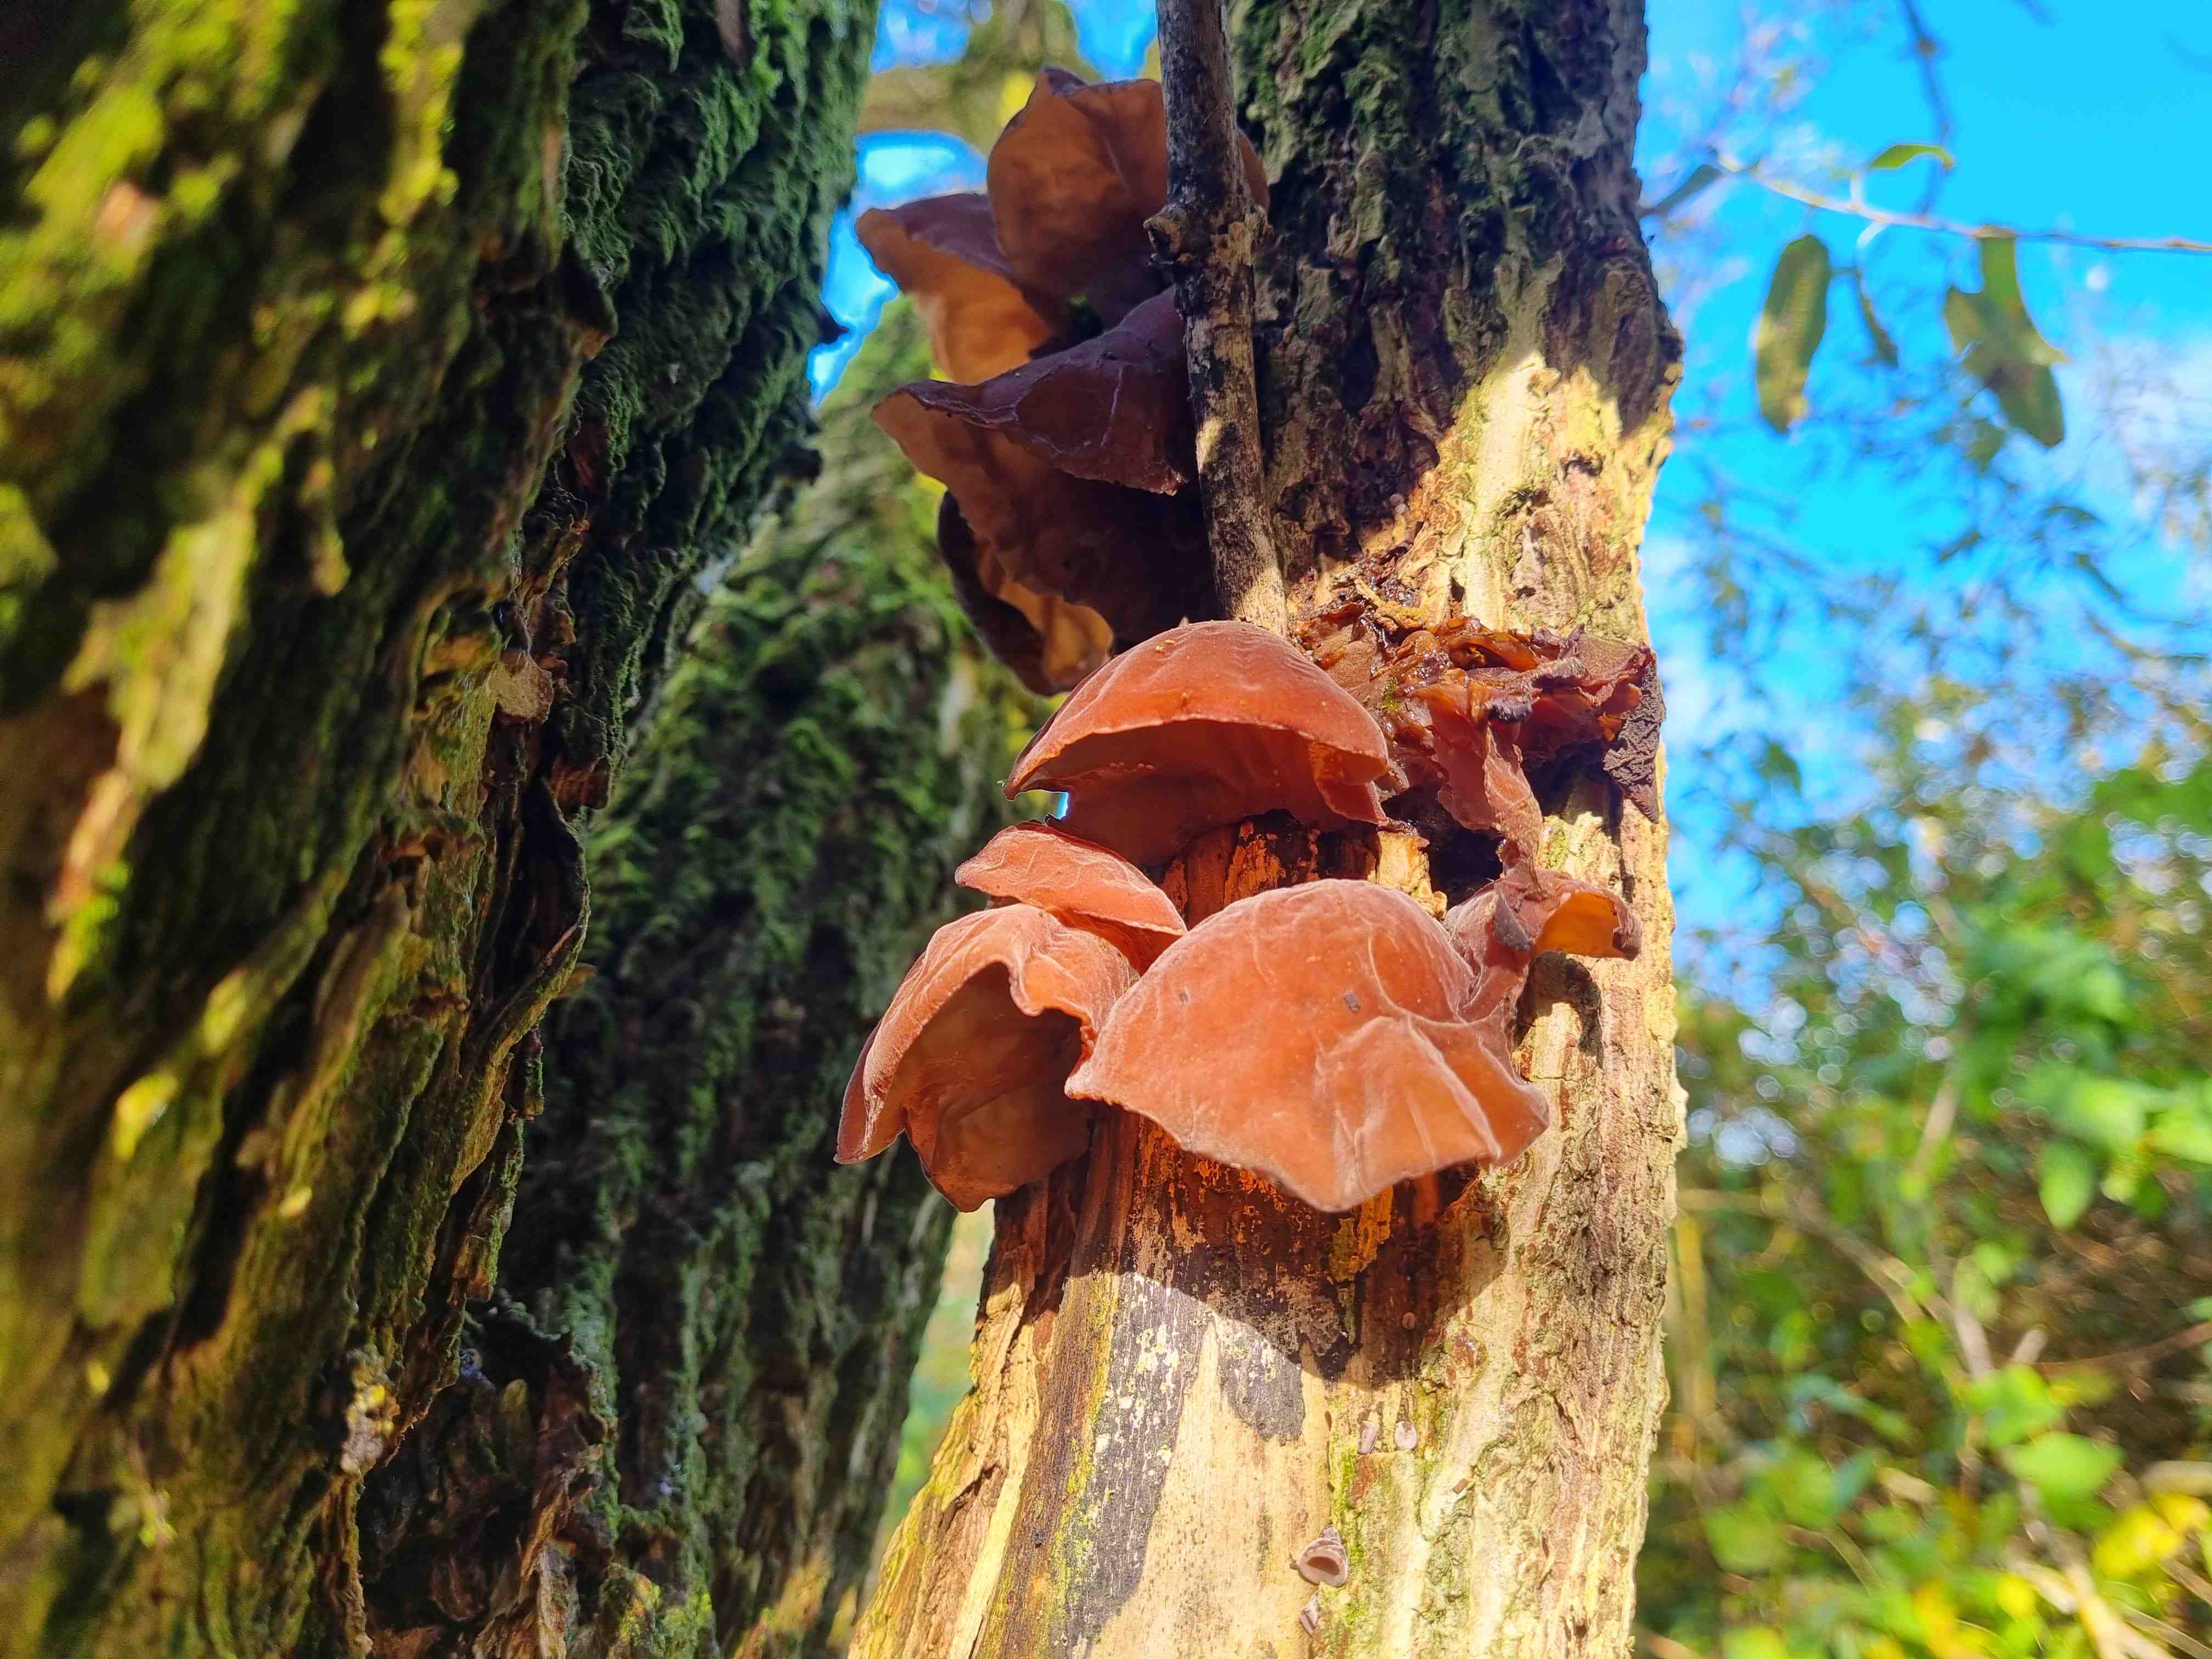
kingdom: Fungi
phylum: Basidiomycota
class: Agaricomycetes
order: Auriculariales
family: Auriculariaceae
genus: Auricularia
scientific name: Auricularia auricula-judae
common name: almindelig judasøre
